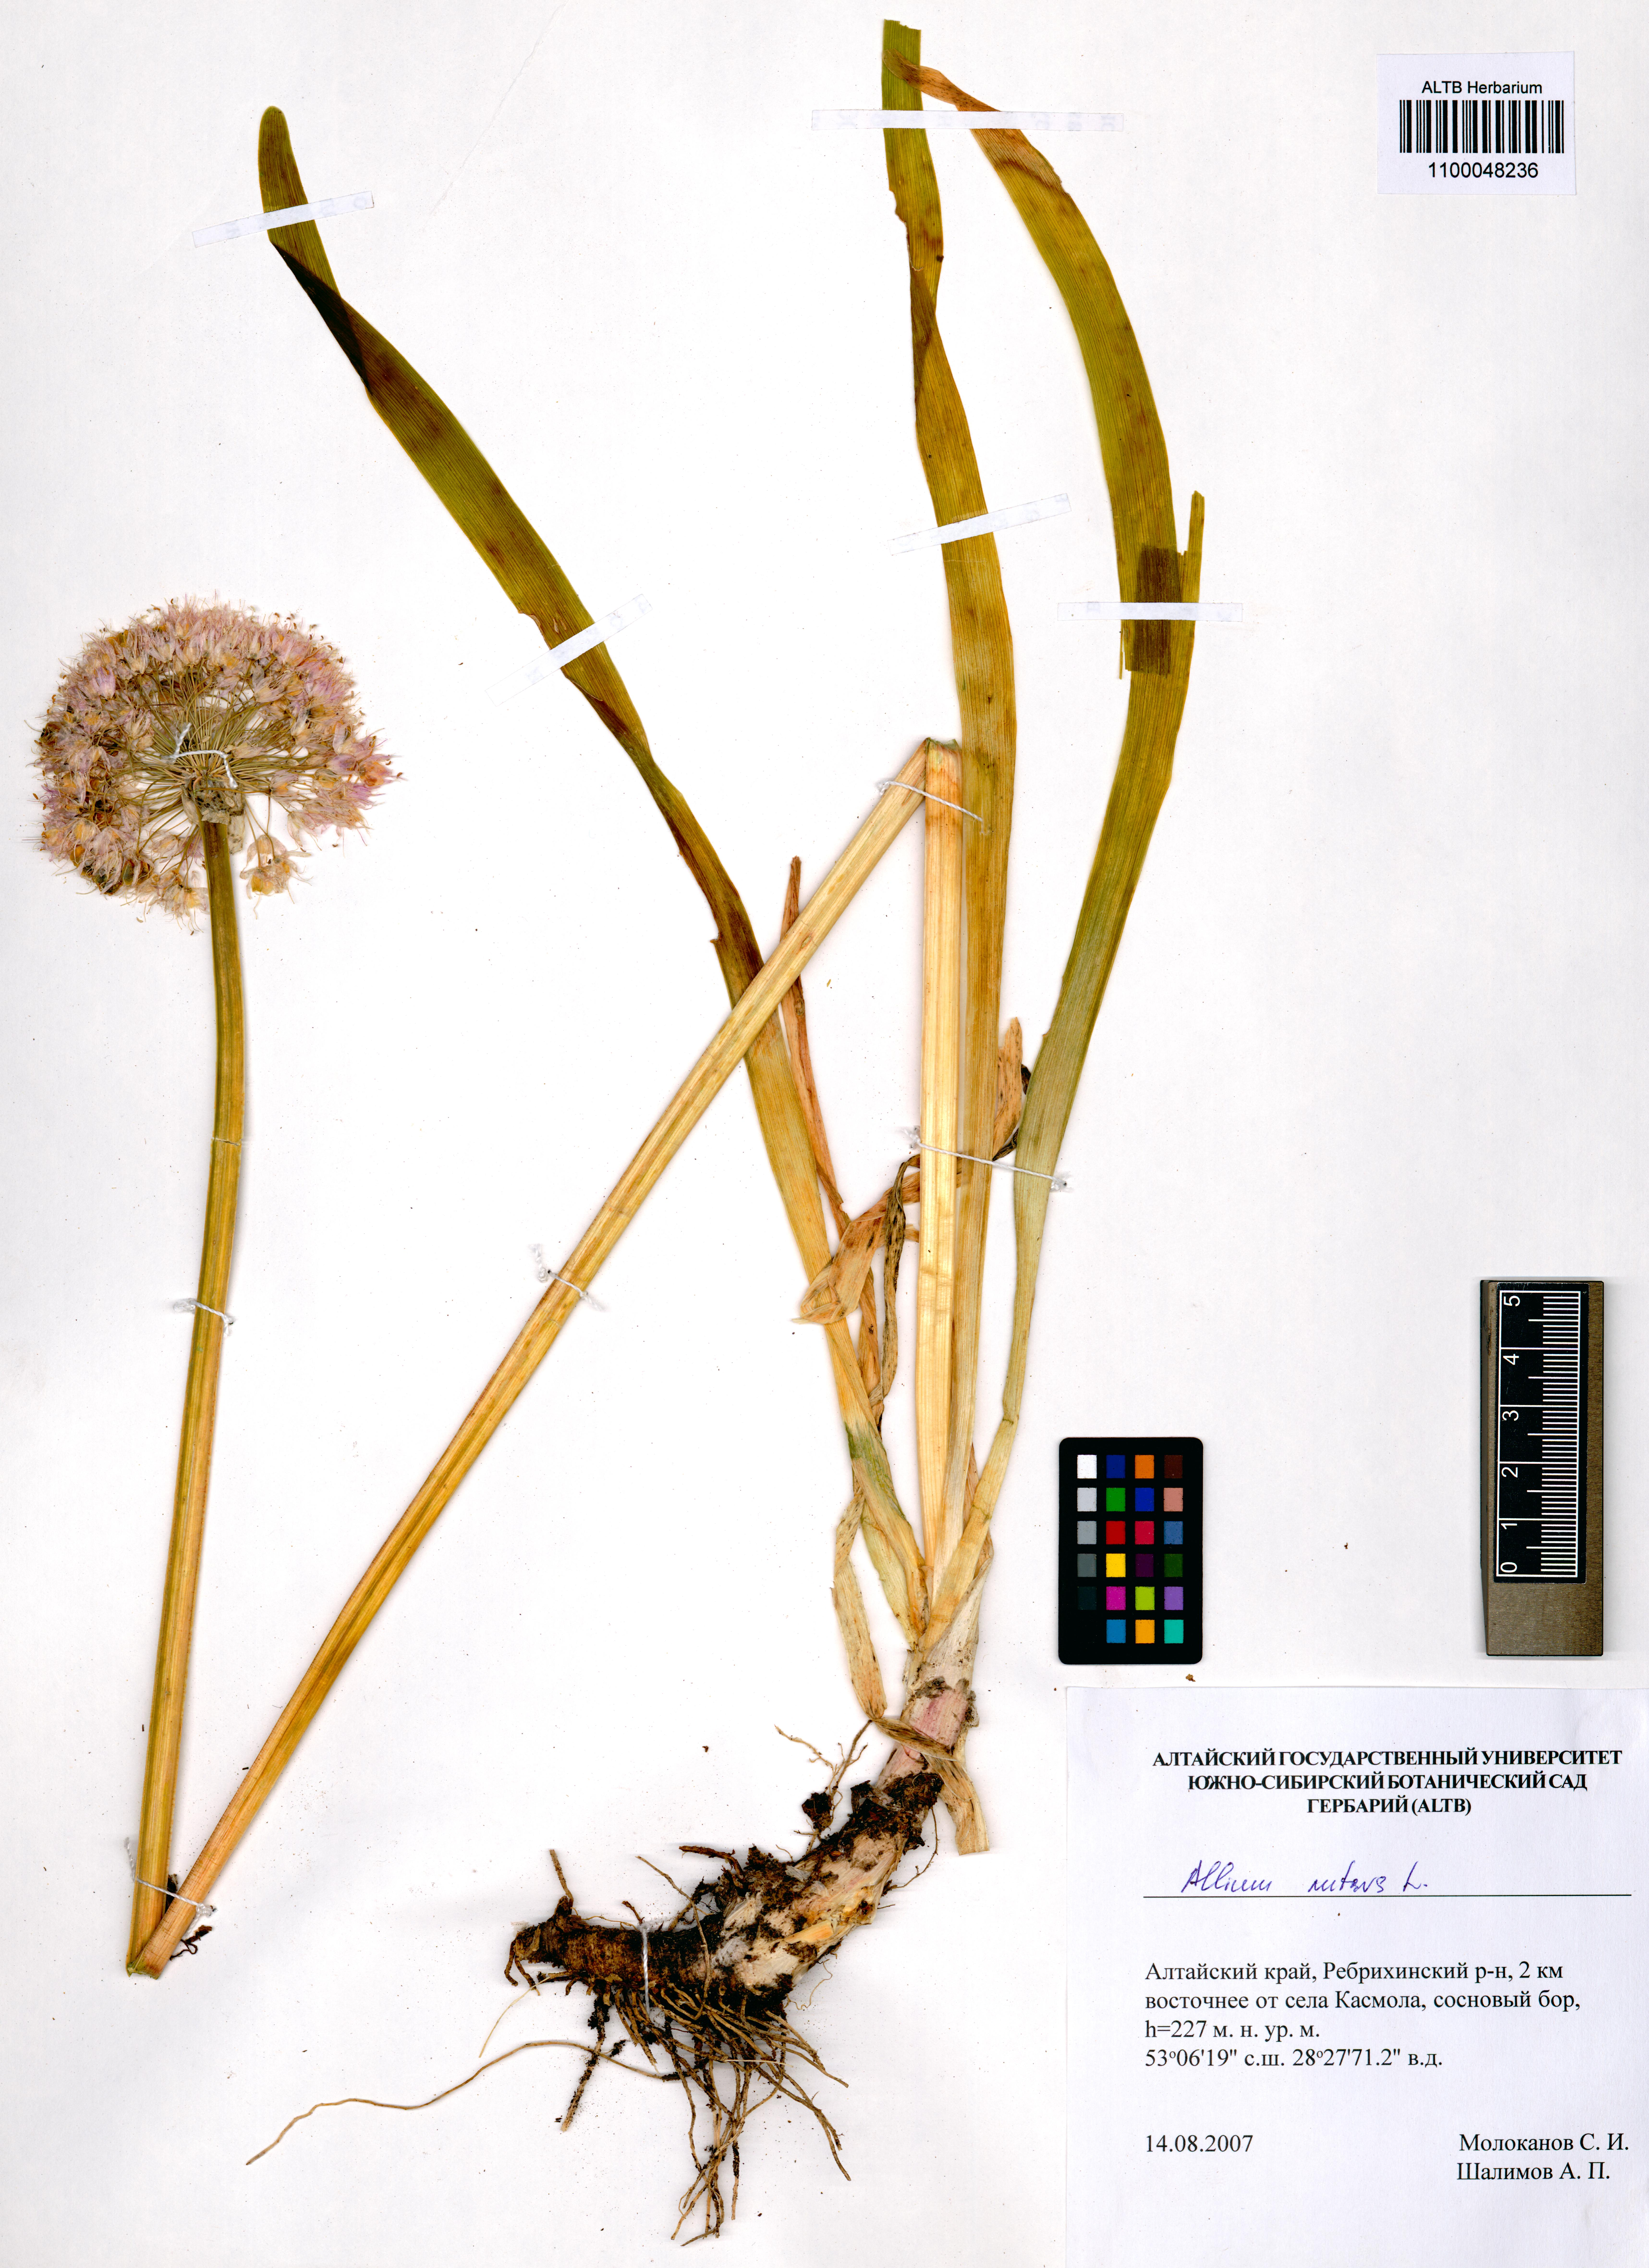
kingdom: Plantae
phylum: Tracheophyta
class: Liliopsida
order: Asparagales
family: Amaryllidaceae
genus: Allium
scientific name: Allium nutans
